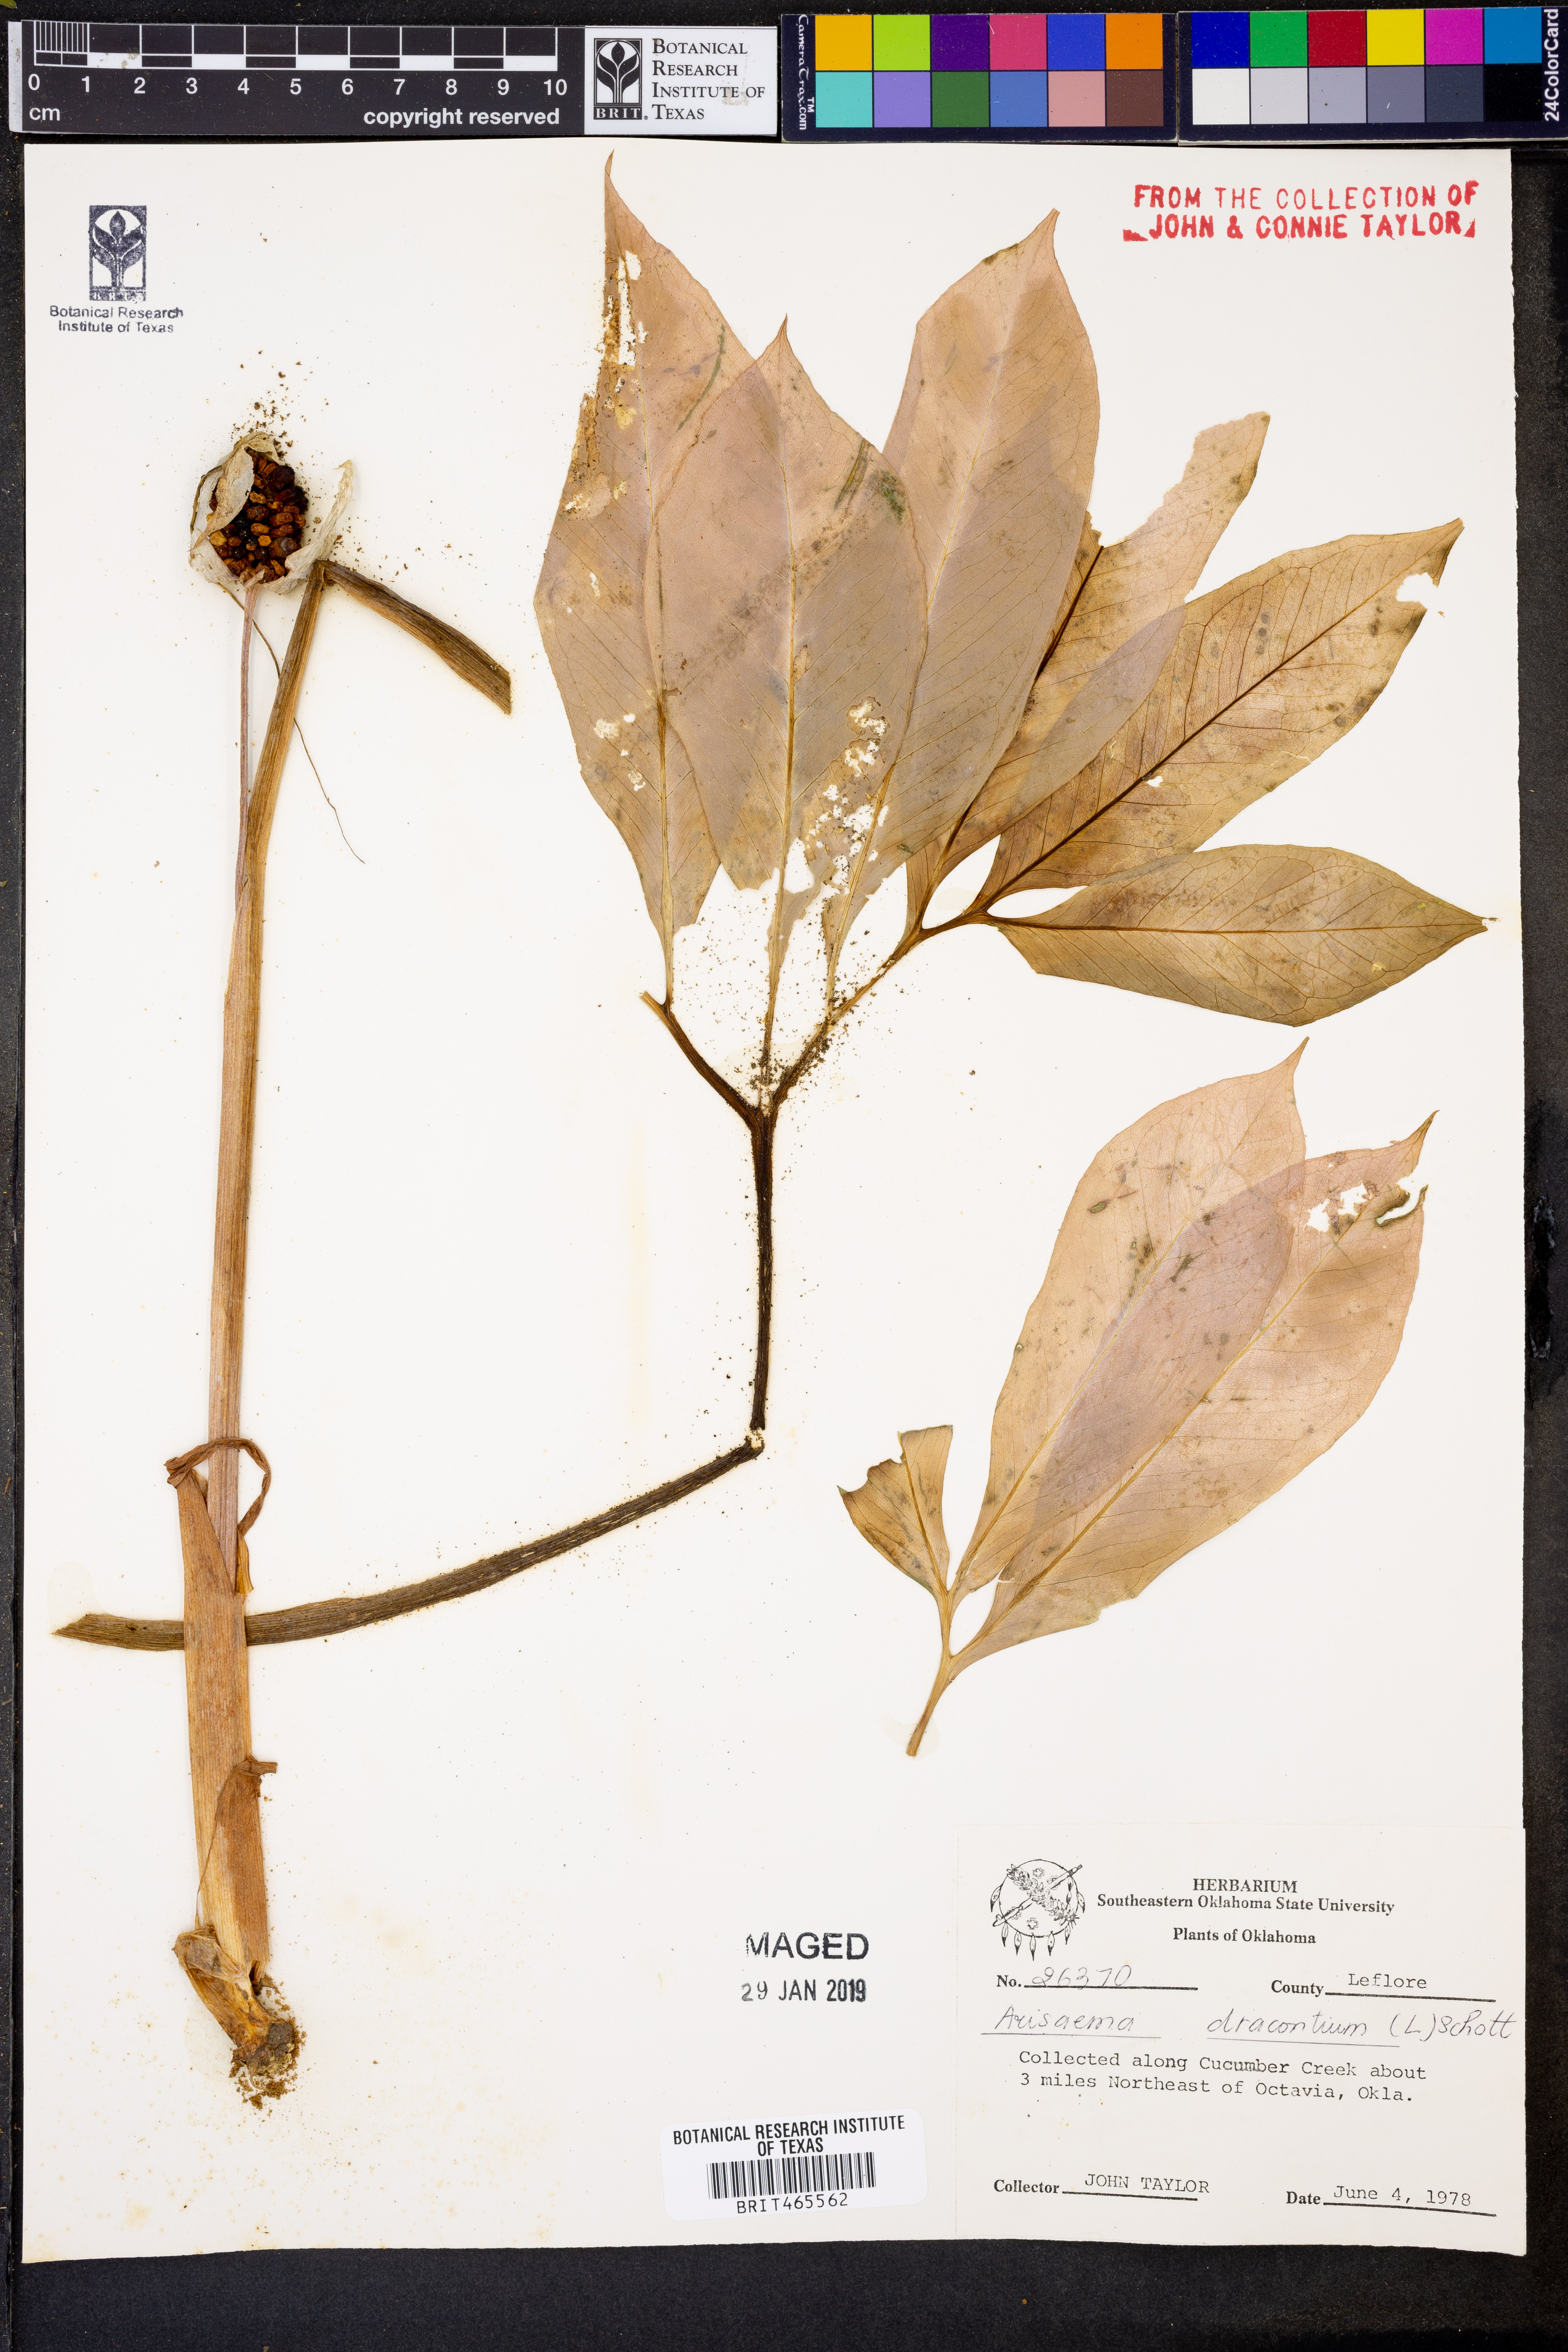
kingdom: Plantae
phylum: Tracheophyta
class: Liliopsida
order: Alismatales
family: Araceae
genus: Arisaema
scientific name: Arisaema dracontium
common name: Dragon-arum
